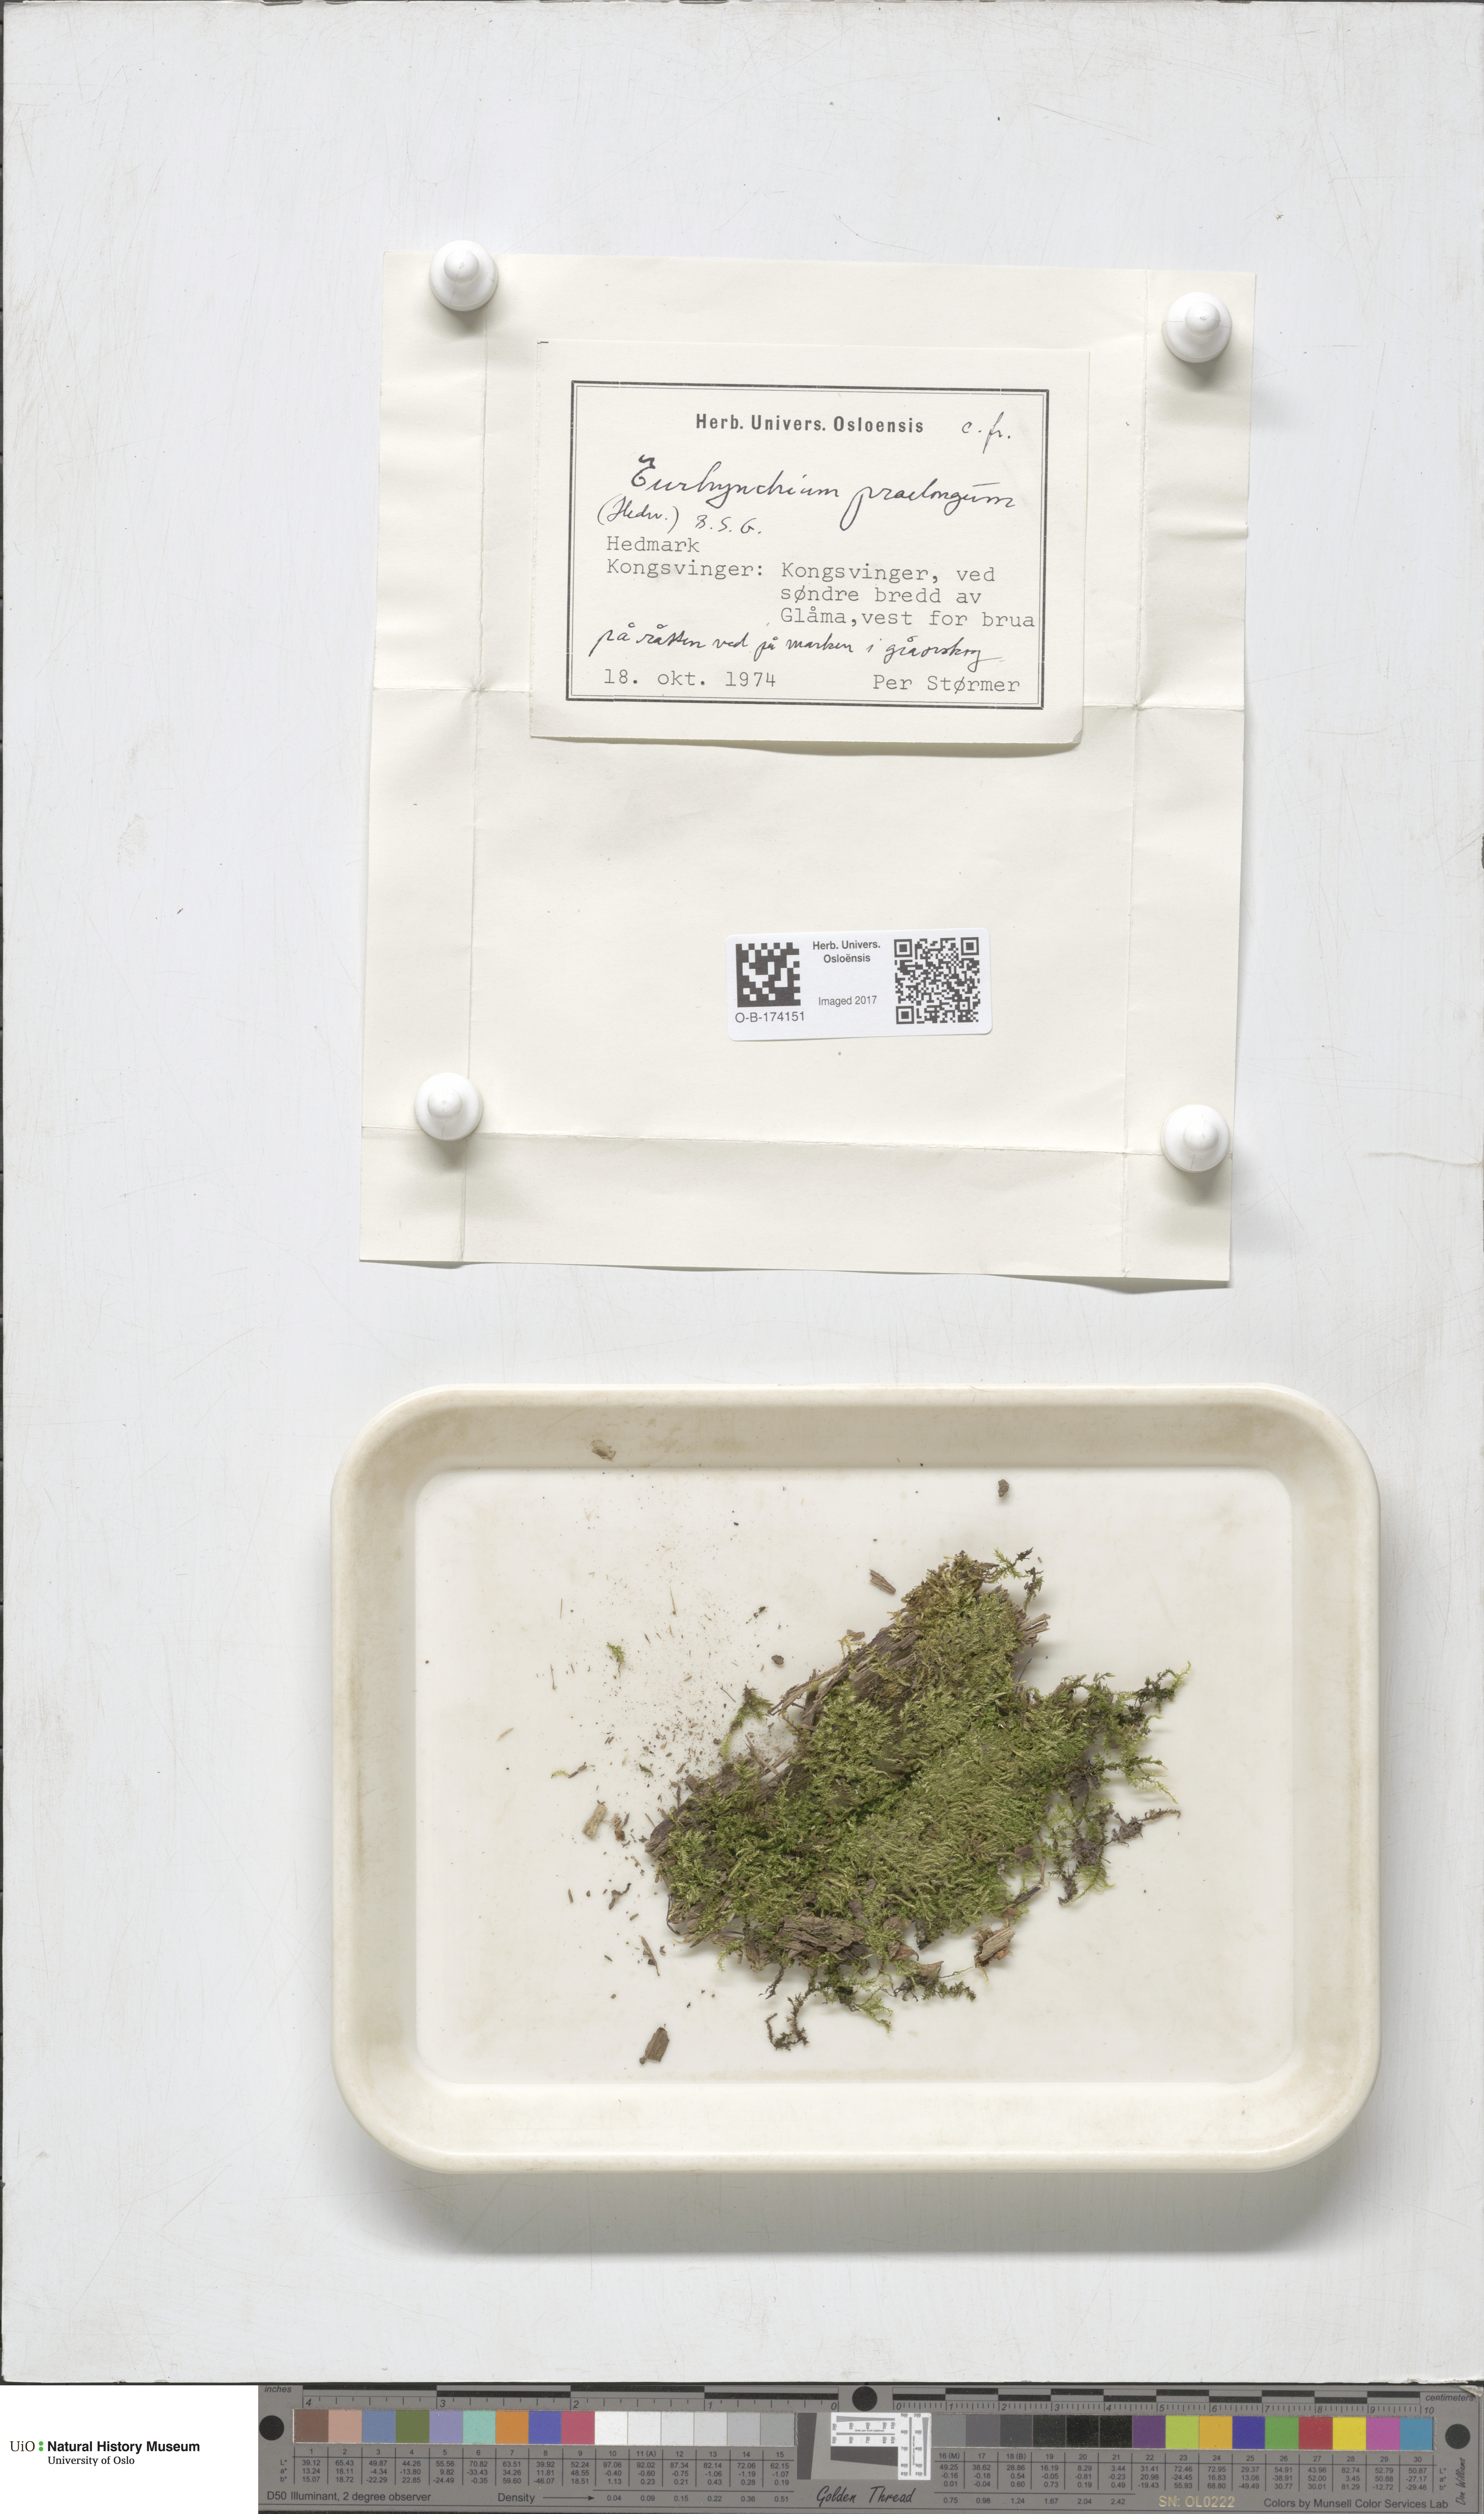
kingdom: Plantae
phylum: Bryophyta
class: Bryopsida
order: Hypnales
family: Brachytheciaceae
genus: Kindbergia
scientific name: Kindbergia praelonga
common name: Slender beaked moss
